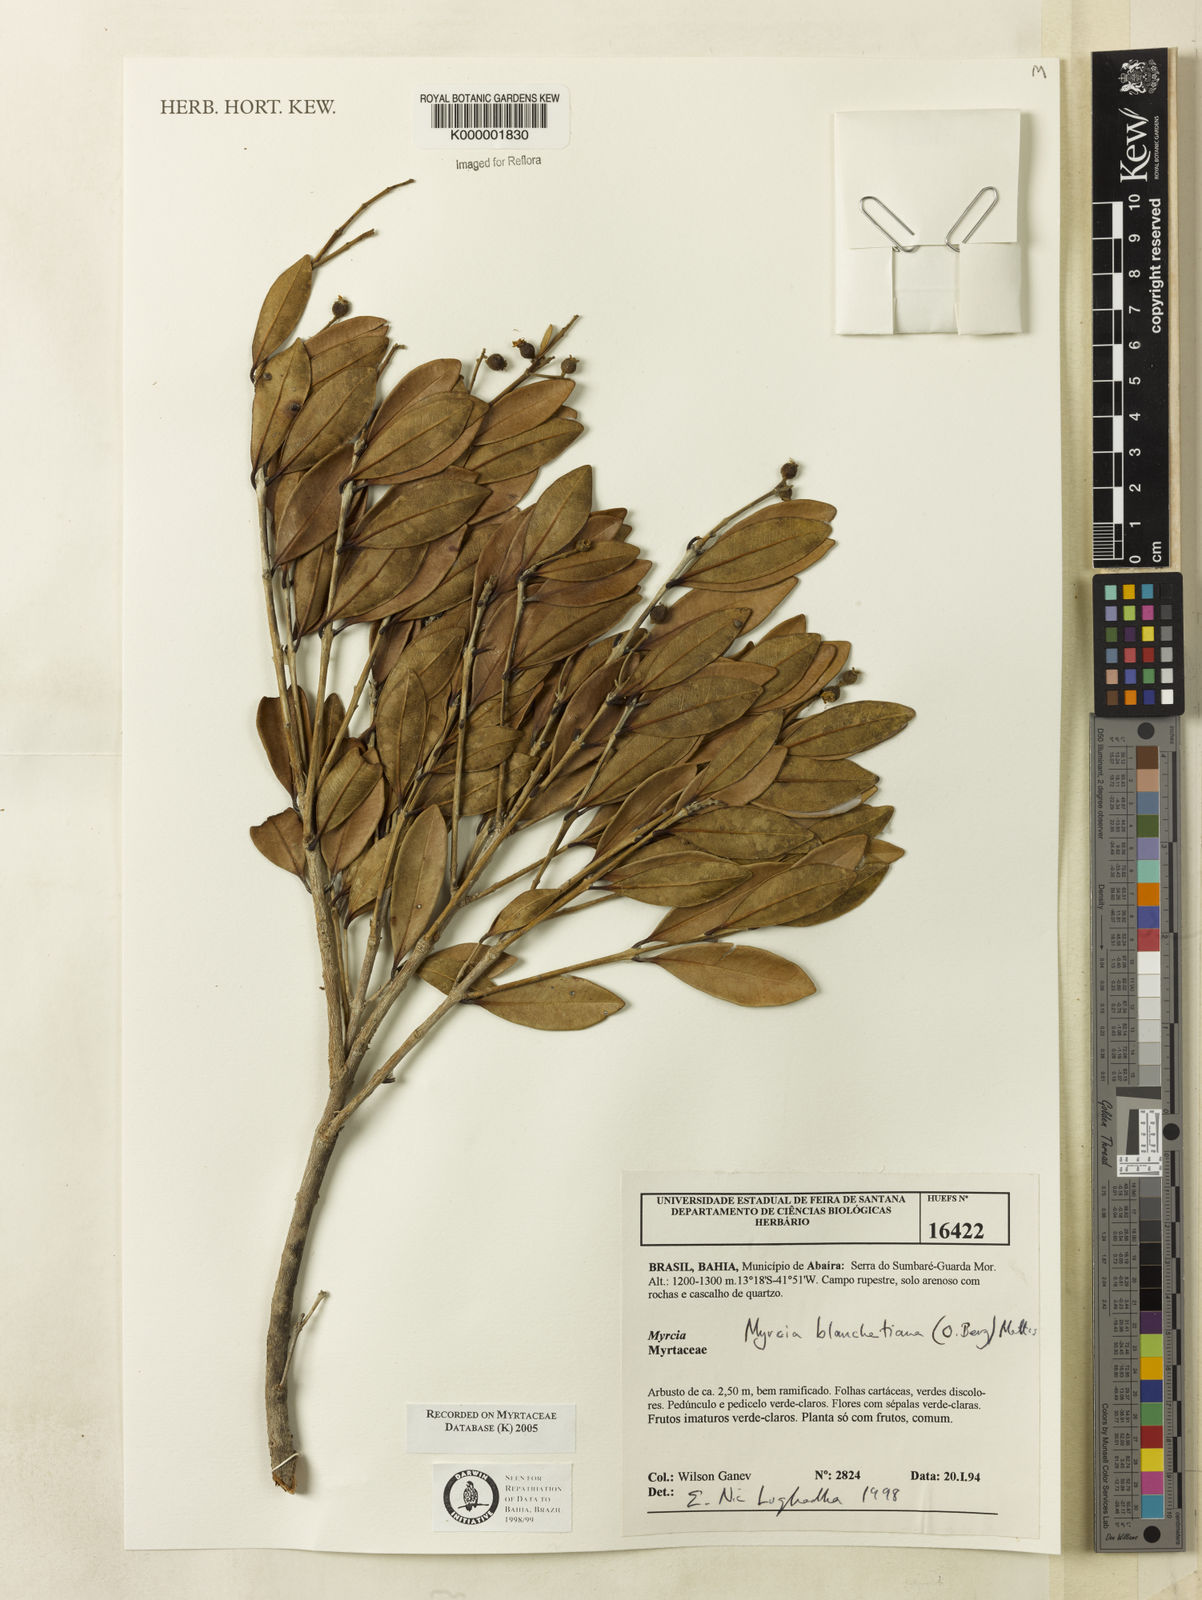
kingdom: Plantae
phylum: Tracheophyta
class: Magnoliopsida
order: Myrtales
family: Myrtaceae
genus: Myrcia
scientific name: Myrcia blanchetiana
